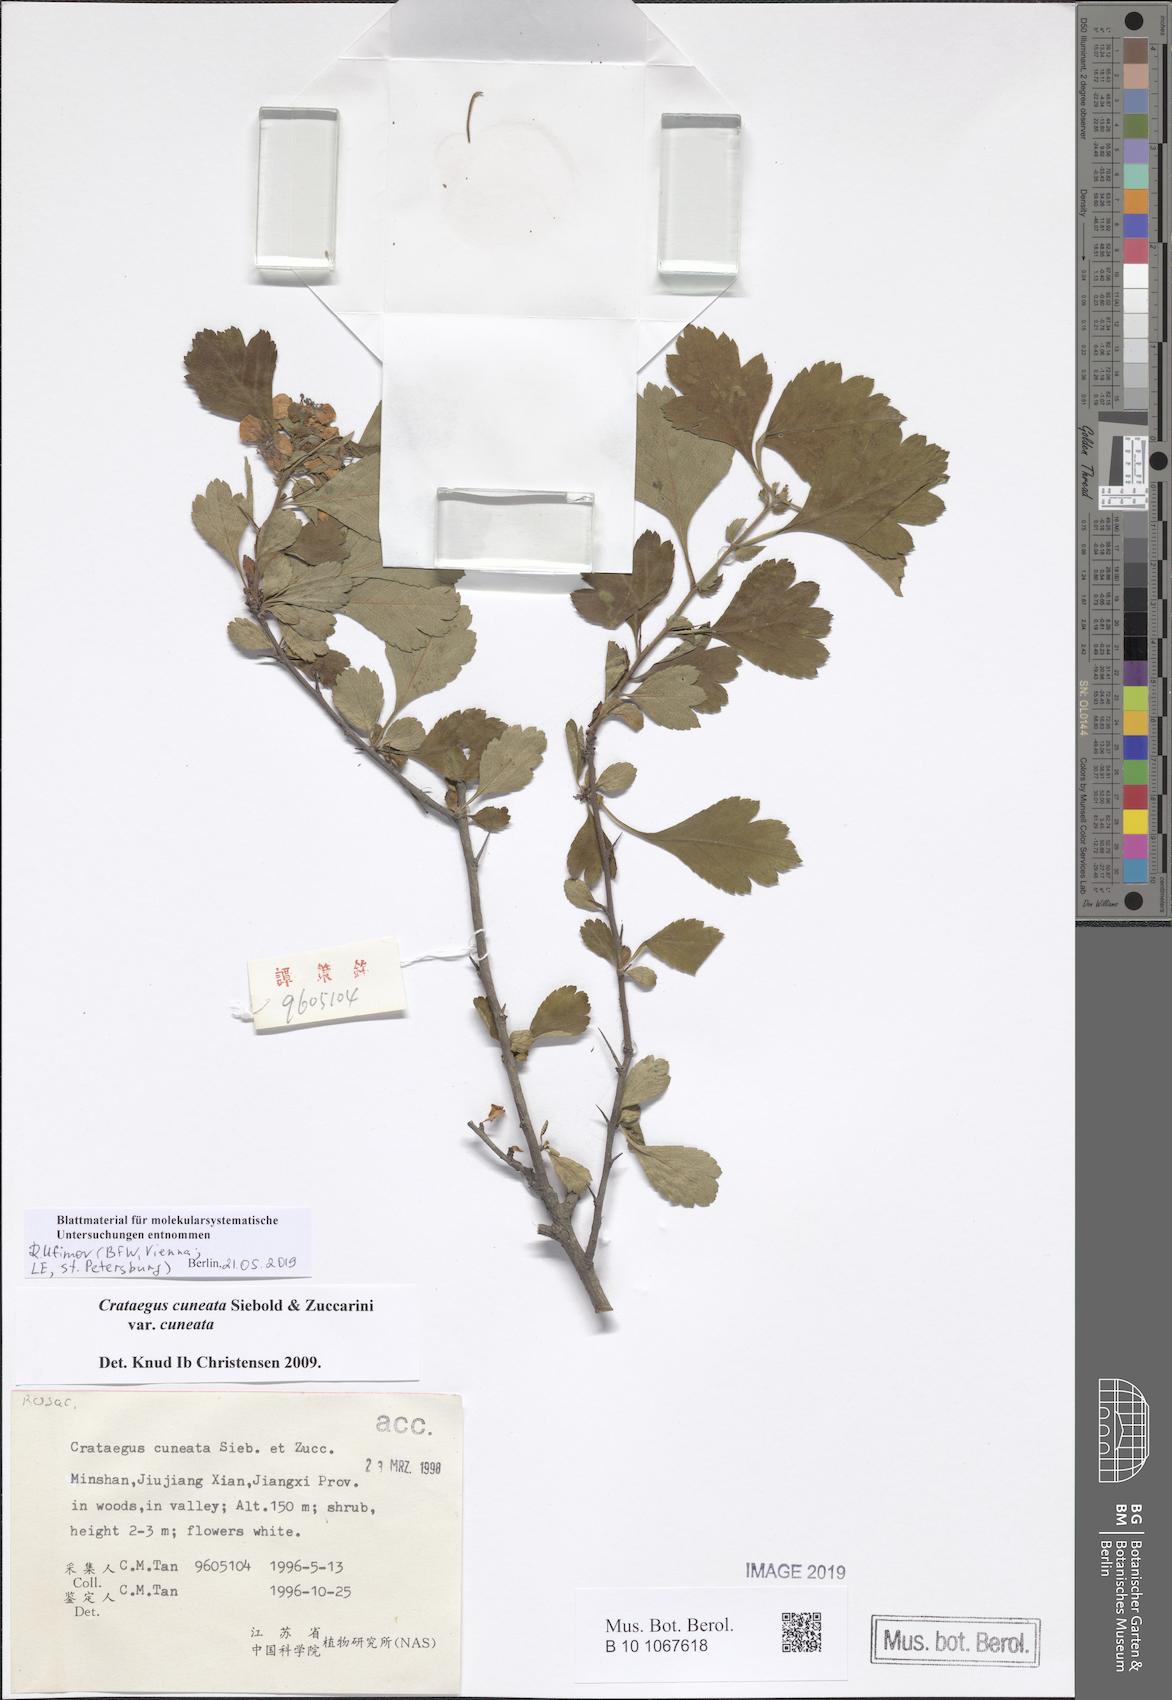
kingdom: Plantae
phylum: Tracheophyta
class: Magnoliopsida
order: Rosales
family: Rosaceae
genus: Crataegus
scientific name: Crataegus cuneata
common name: Chinese hawthorn
